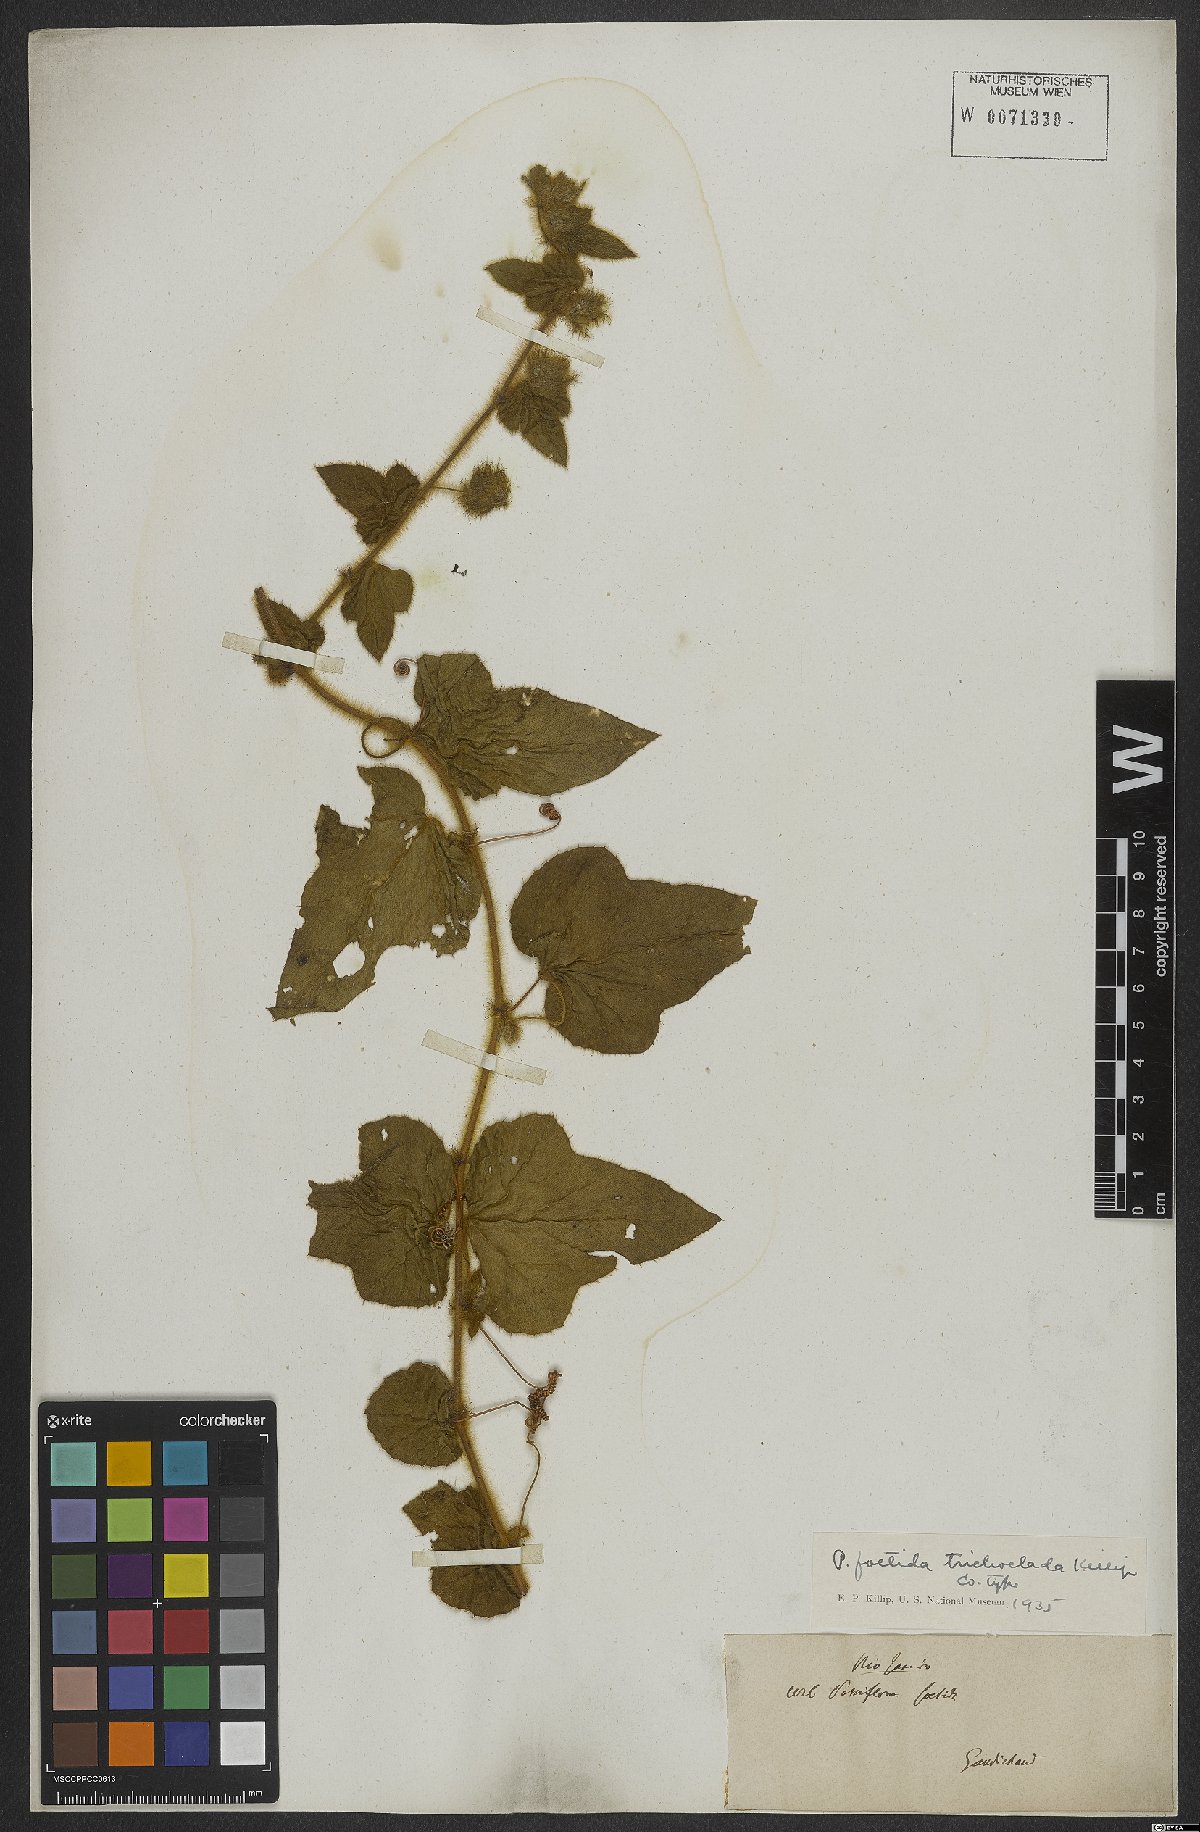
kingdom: Plantae
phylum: Tracheophyta
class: Magnoliopsida
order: Malpighiales
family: Passifloraceae
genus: Passiflora
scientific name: Passiflora foetida
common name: Fetid passionflower
